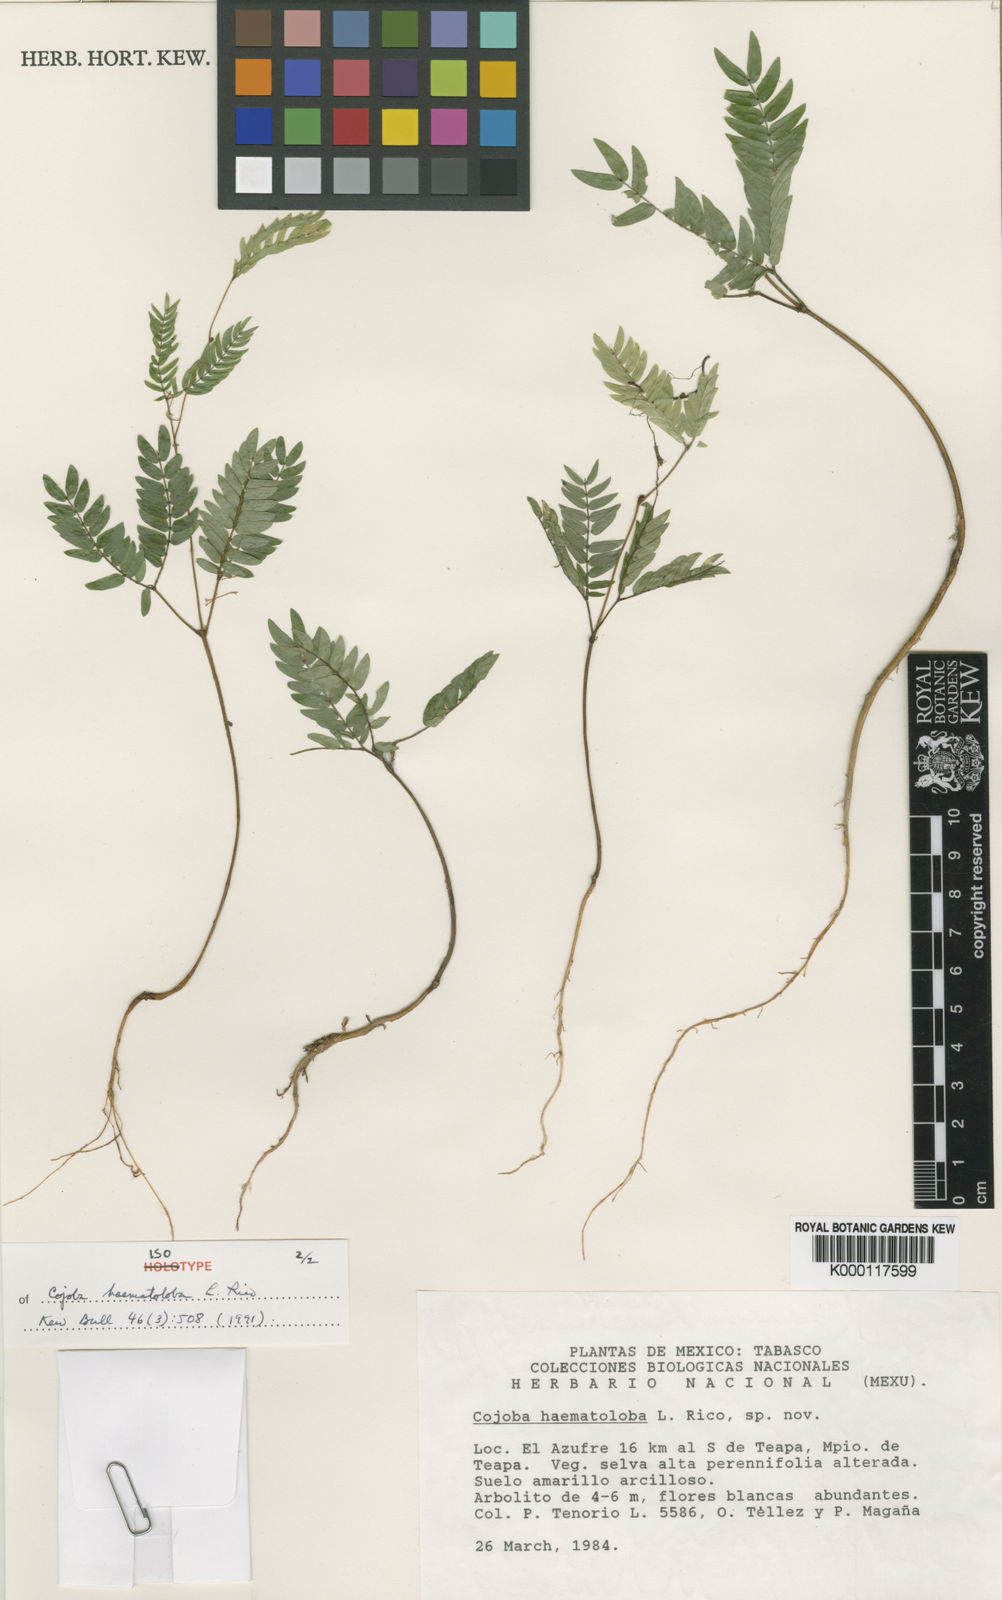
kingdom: Plantae
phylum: Tracheophyta
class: Magnoliopsida
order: Fabales
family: Fabaceae
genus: Cojoba
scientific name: Cojoba sophorocarpa
